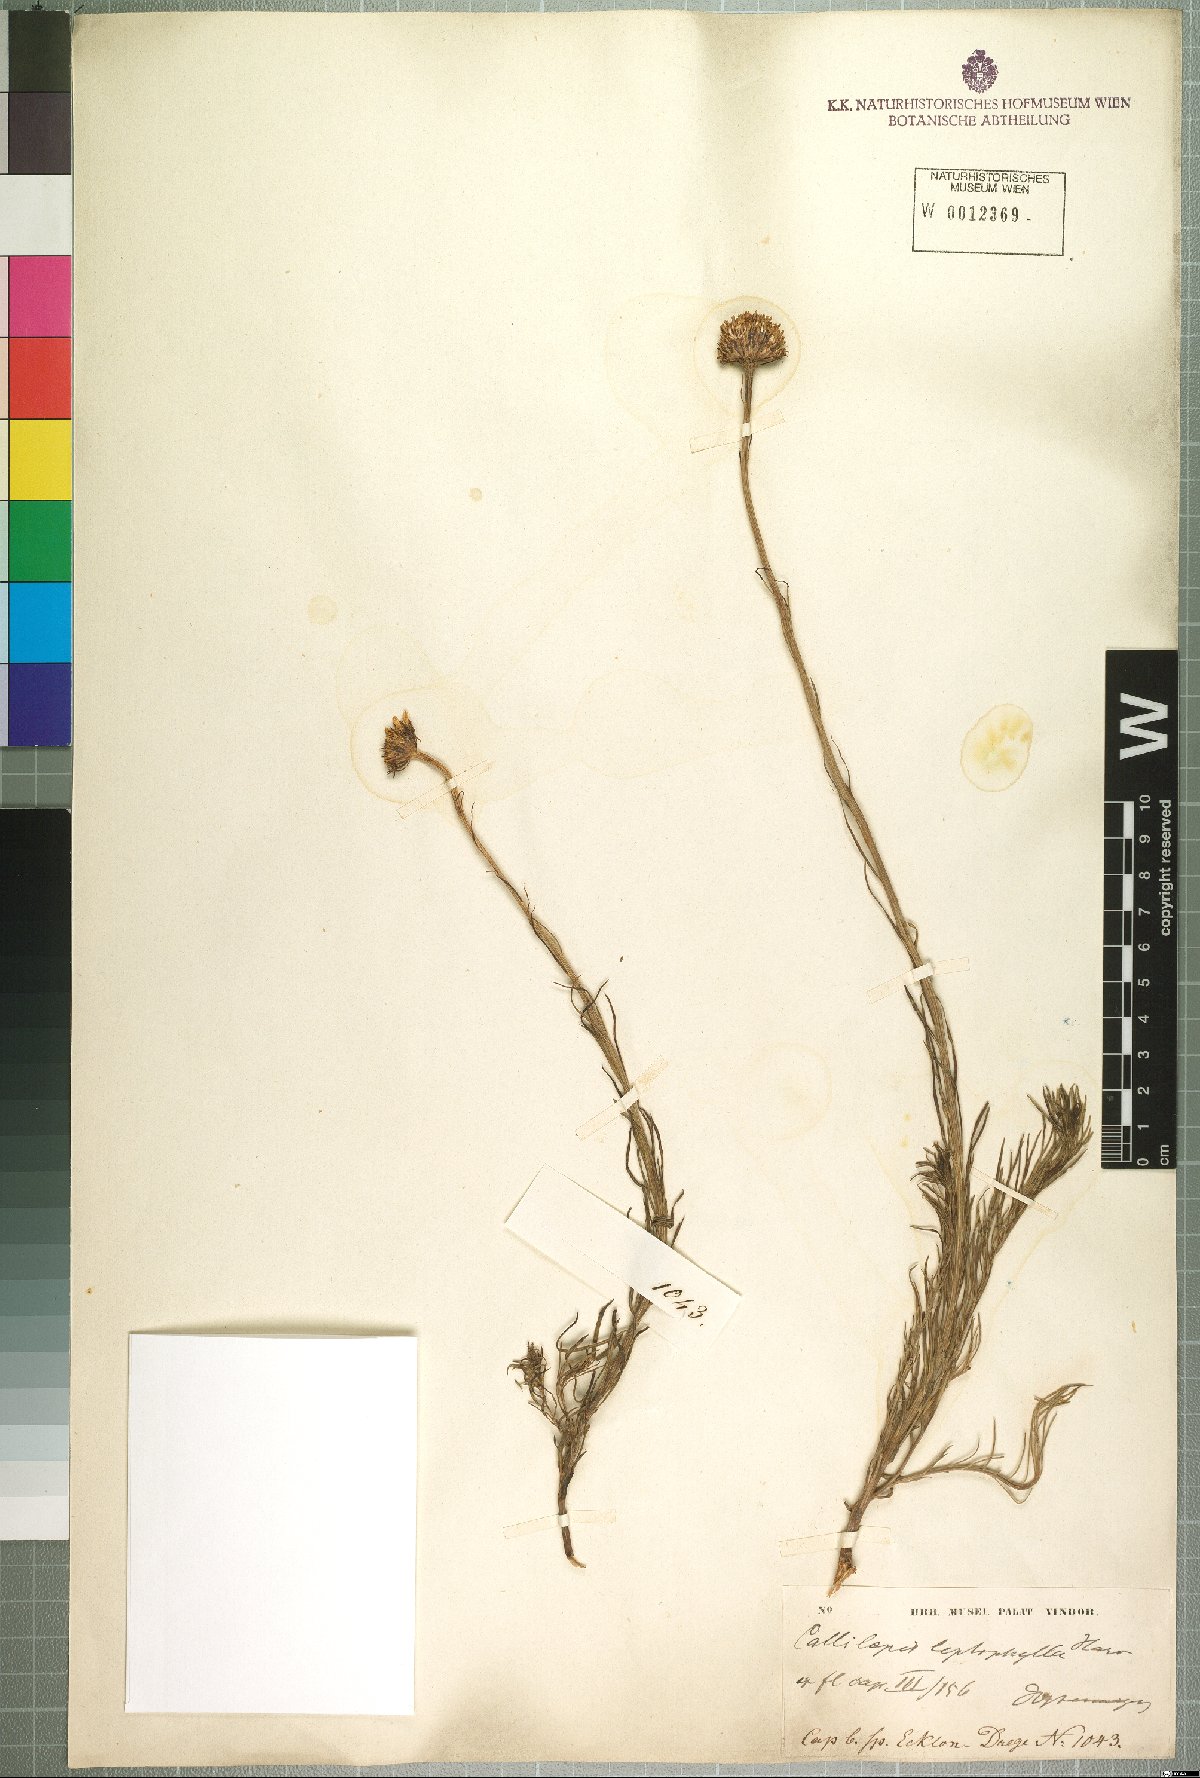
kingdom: Plantae
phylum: Tracheophyta
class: Magnoliopsida
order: Asterales
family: Asteraceae
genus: Callilepis
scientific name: Callilepis leptophylla
